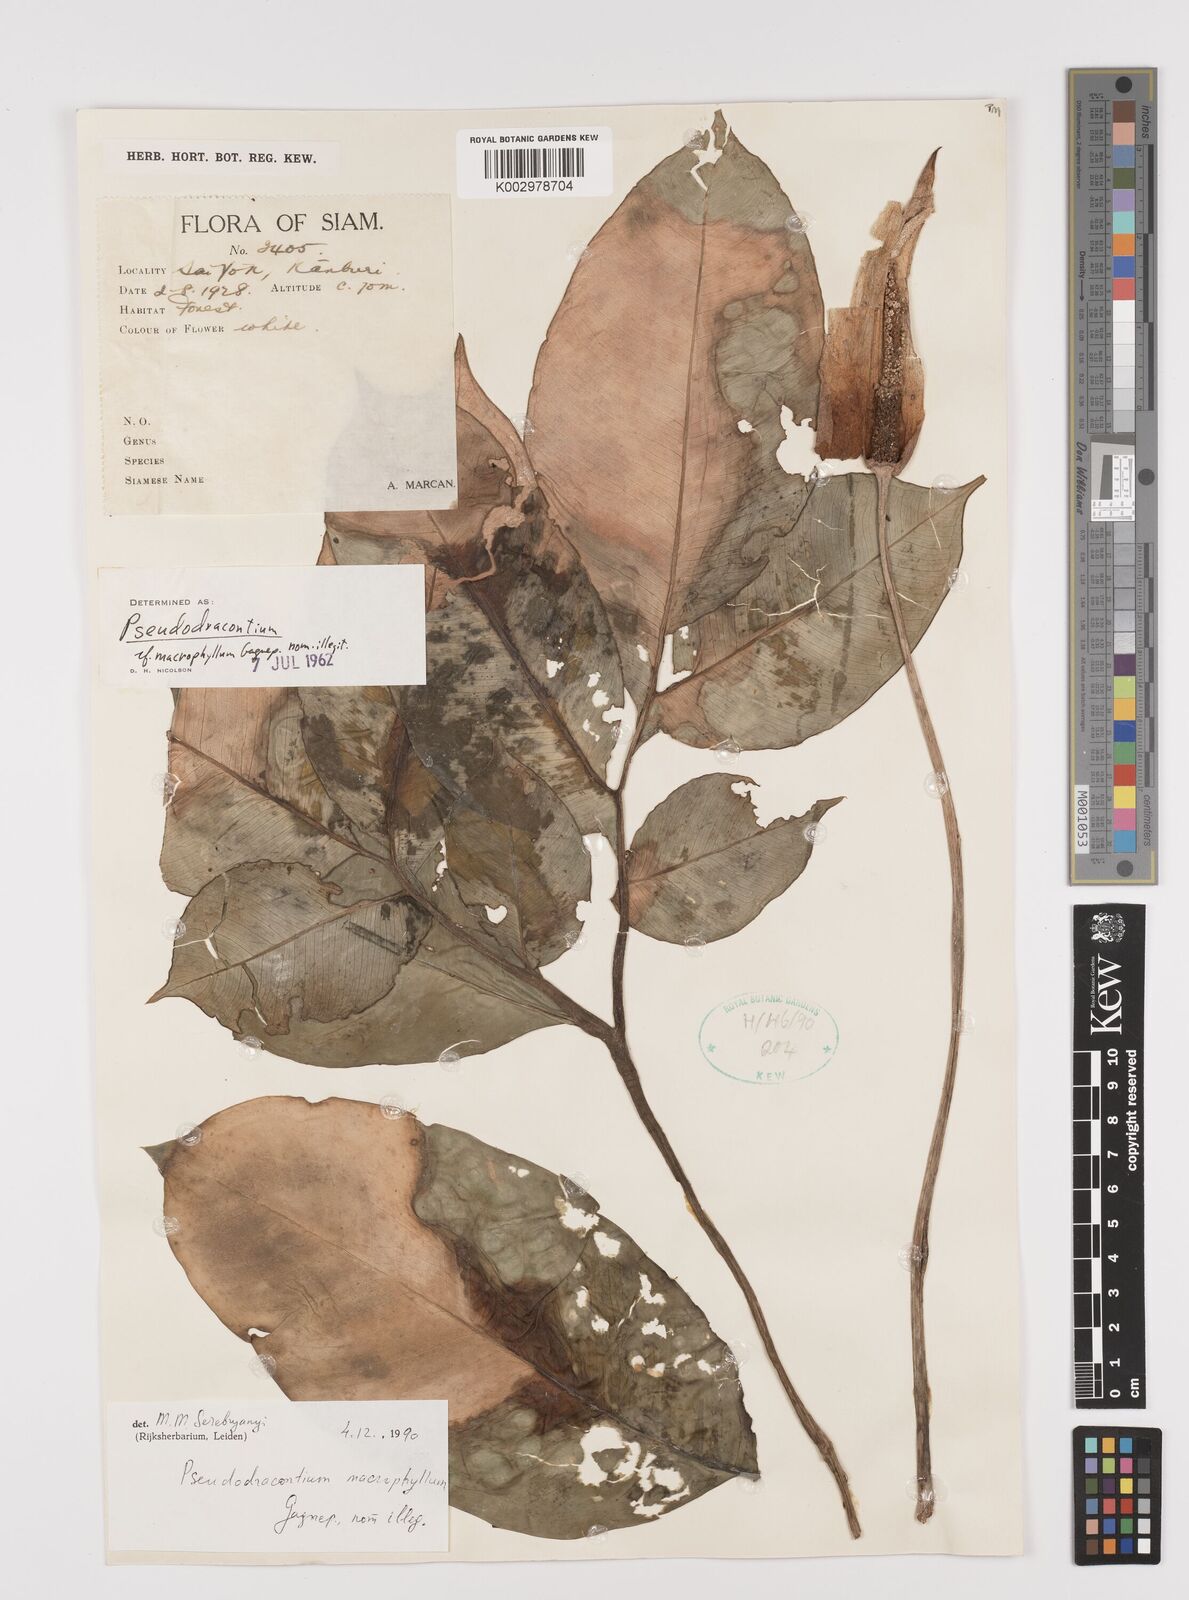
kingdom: Plantae
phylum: Tracheophyta
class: Liliopsida
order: Alismatales
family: Araceae
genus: Amorphophallus
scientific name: Amorphophallus macrophyllus
